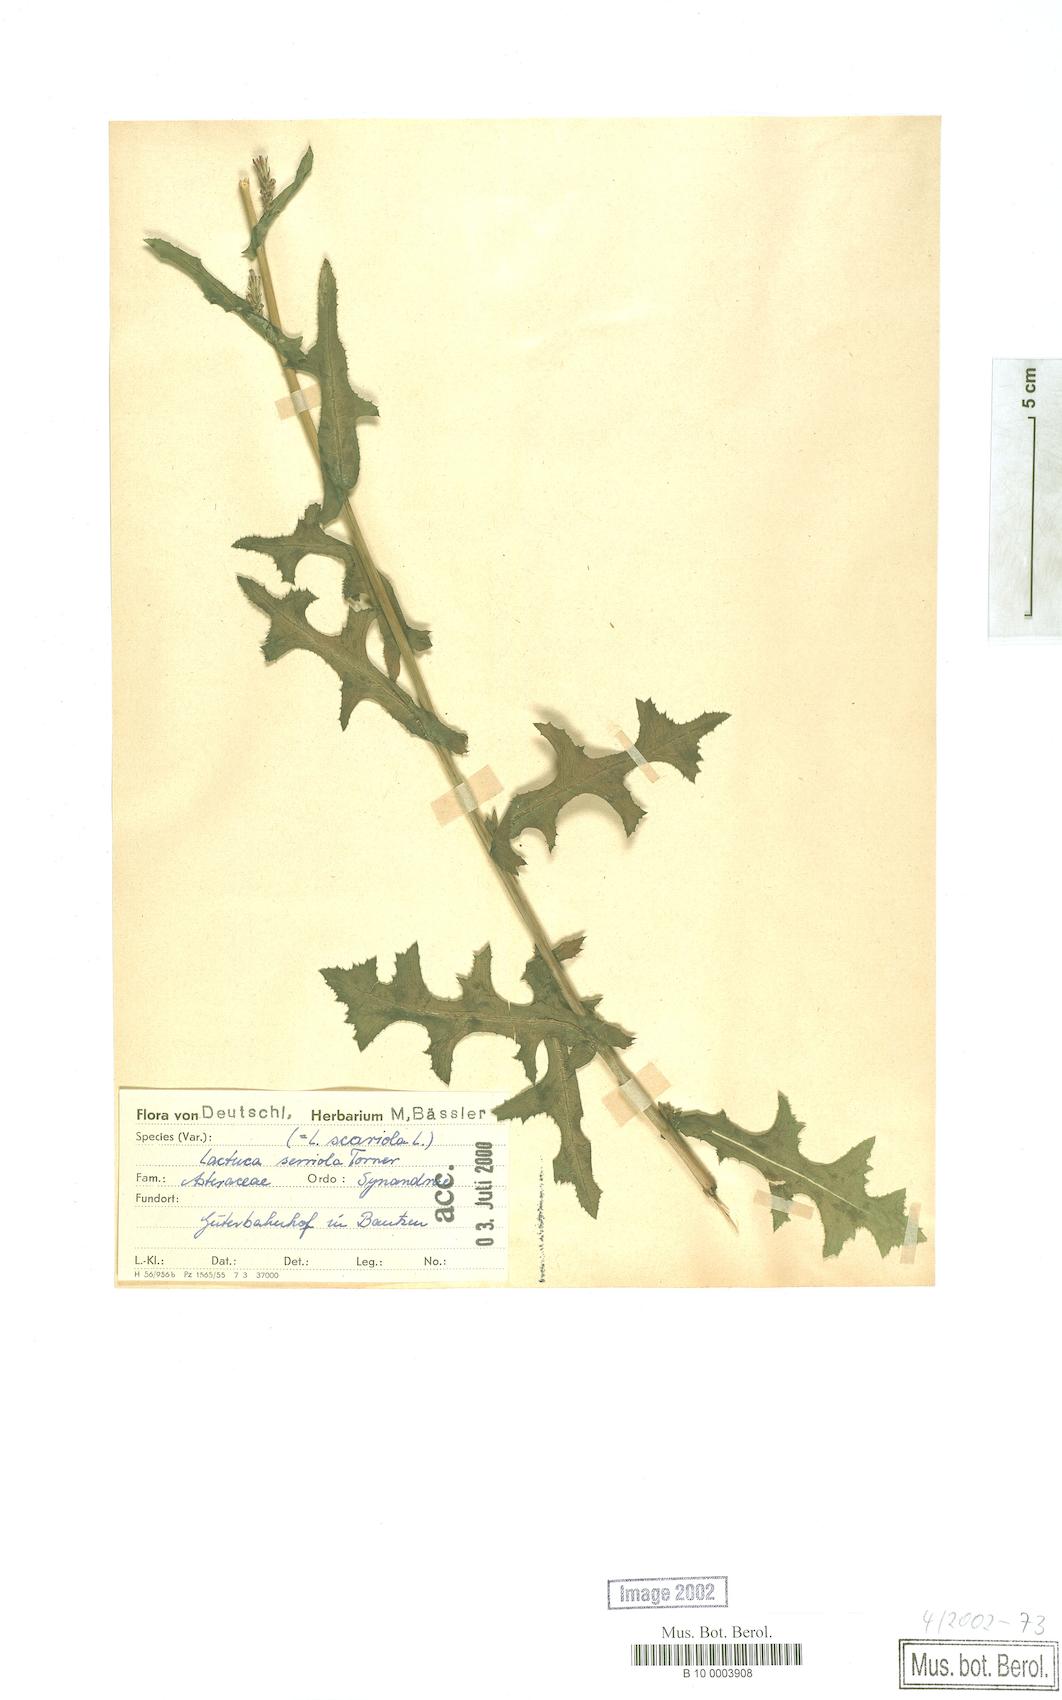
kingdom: Plantae
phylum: Tracheophyta
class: Magnoliopsida
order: Asterales
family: Asteraceae
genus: Lactuca
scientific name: Lactuca serriola
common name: Prickly lettuce
